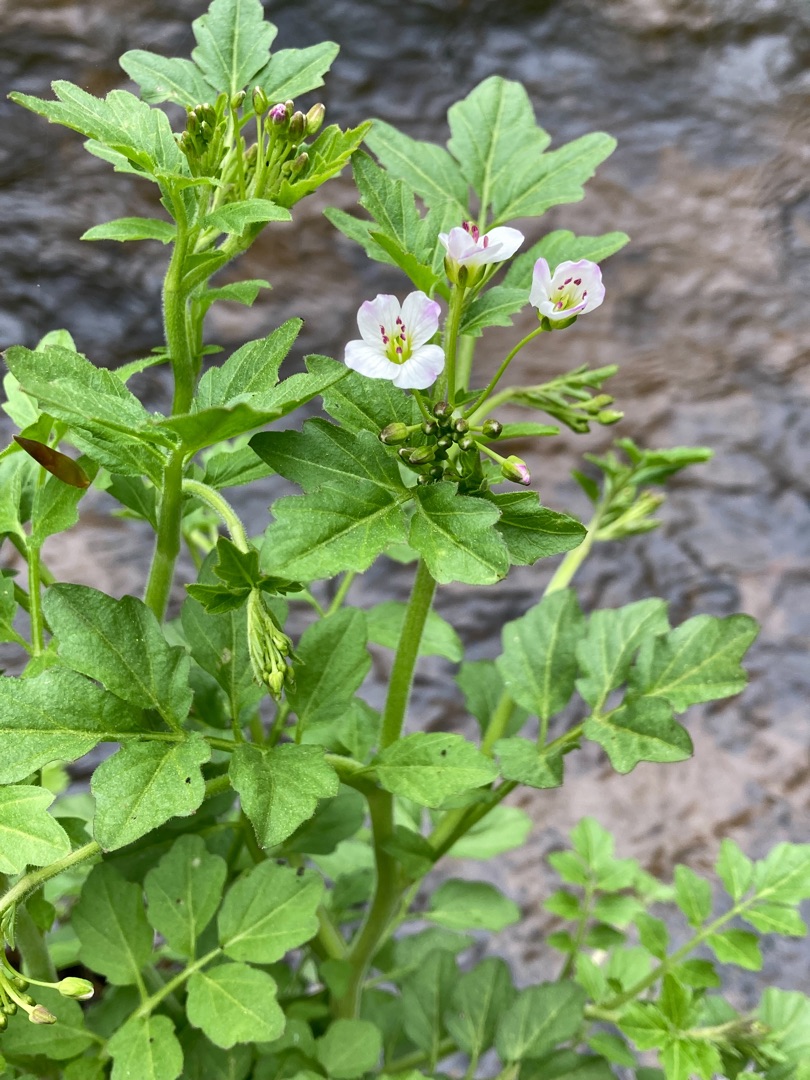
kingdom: Plantae
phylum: Tracheophyta
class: Magnoliopsida
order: Brassicales
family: Brassicaceae
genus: Cardamine
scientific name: Cardamine amara
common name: Vandkarse
